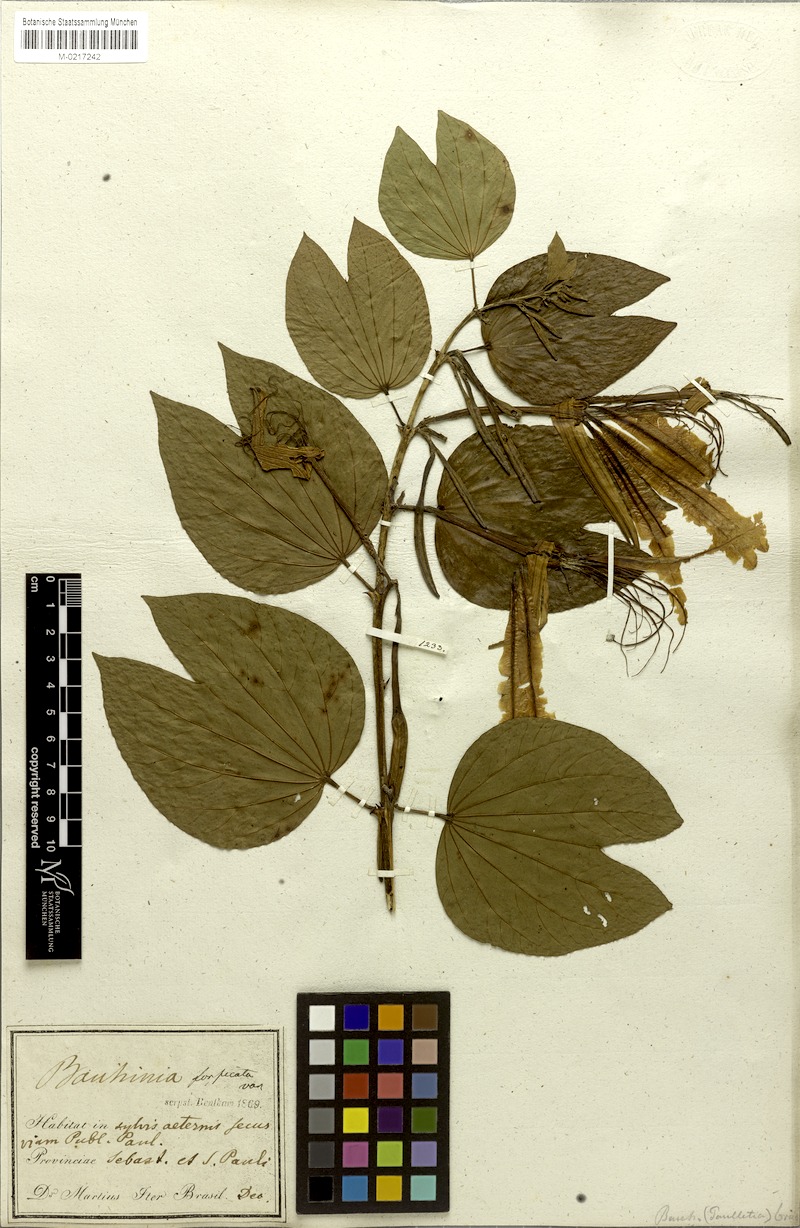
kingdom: Plantae
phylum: Tracheophyta
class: Magnoliopsida
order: Fabales
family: Fabaceae
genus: Bauhinia
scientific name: Bauhinia forficata
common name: Orchid tree
